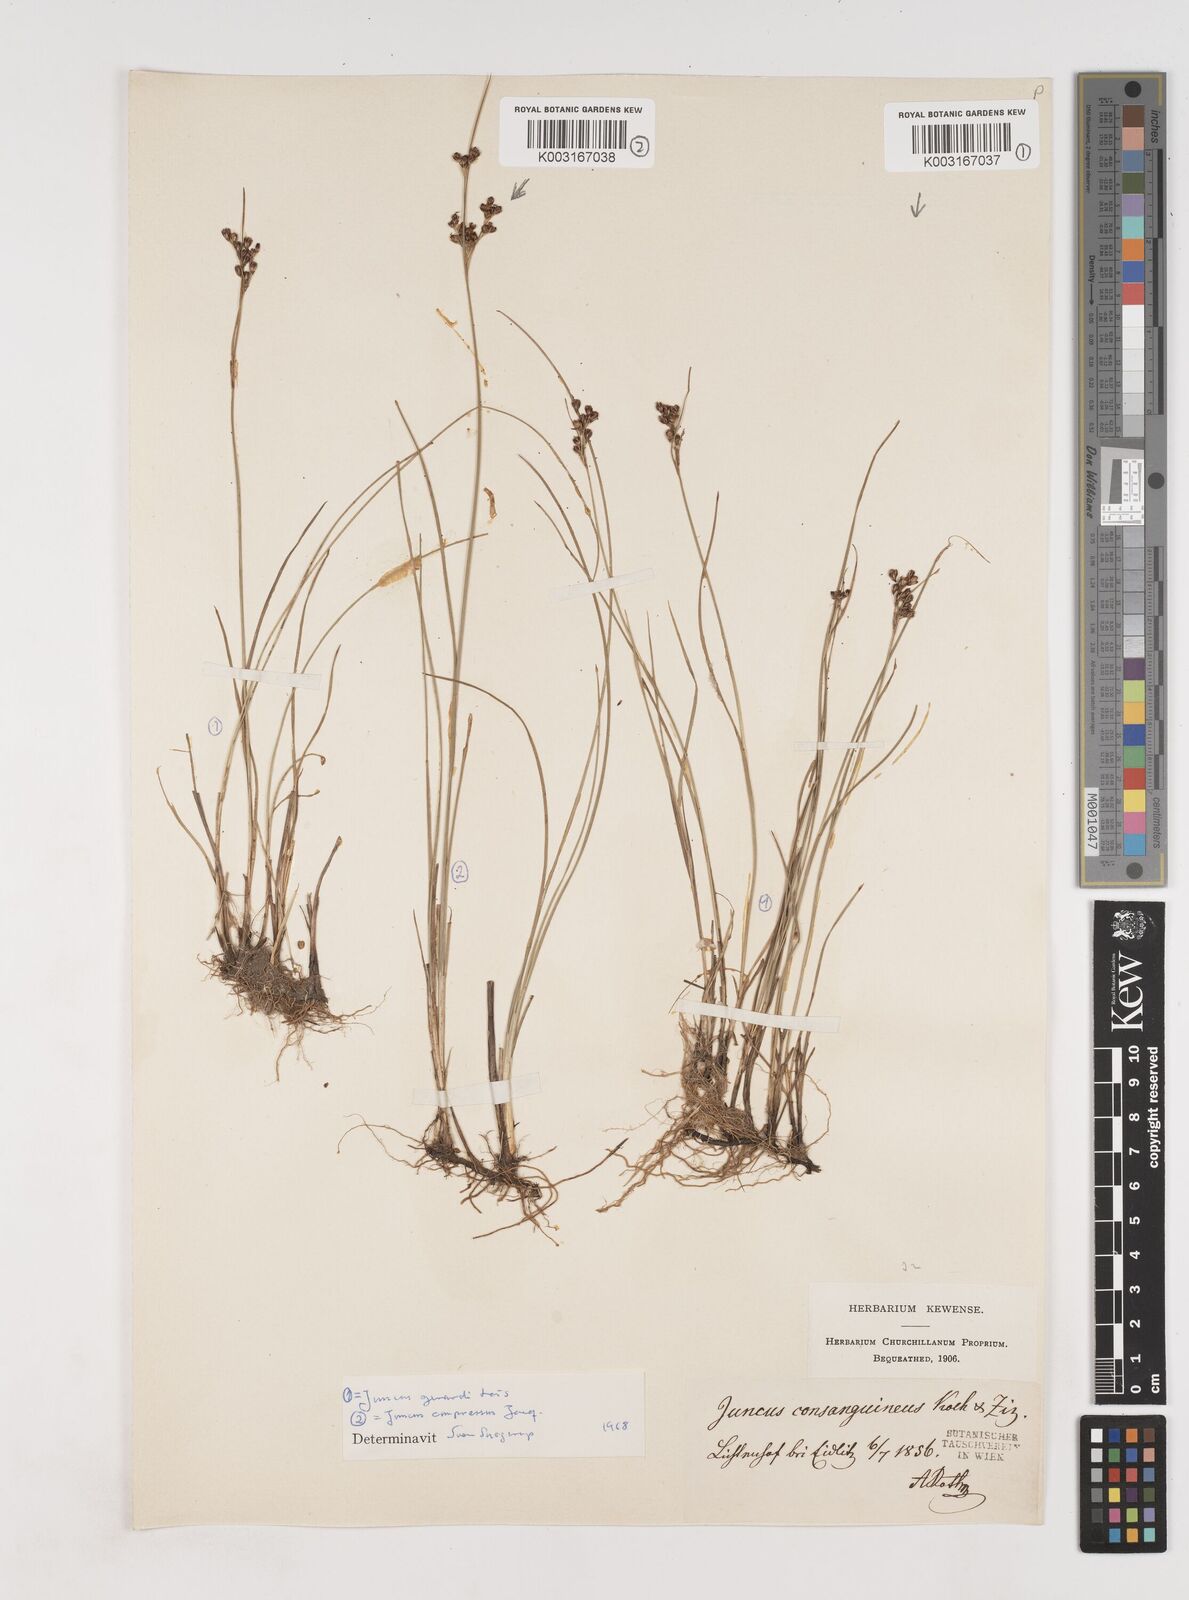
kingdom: Plantae
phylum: Tracheophyta
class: Liliopsida
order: Poales
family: Juncaceae
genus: Juncus
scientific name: Juncus gerardi
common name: Saltmarsh rush
